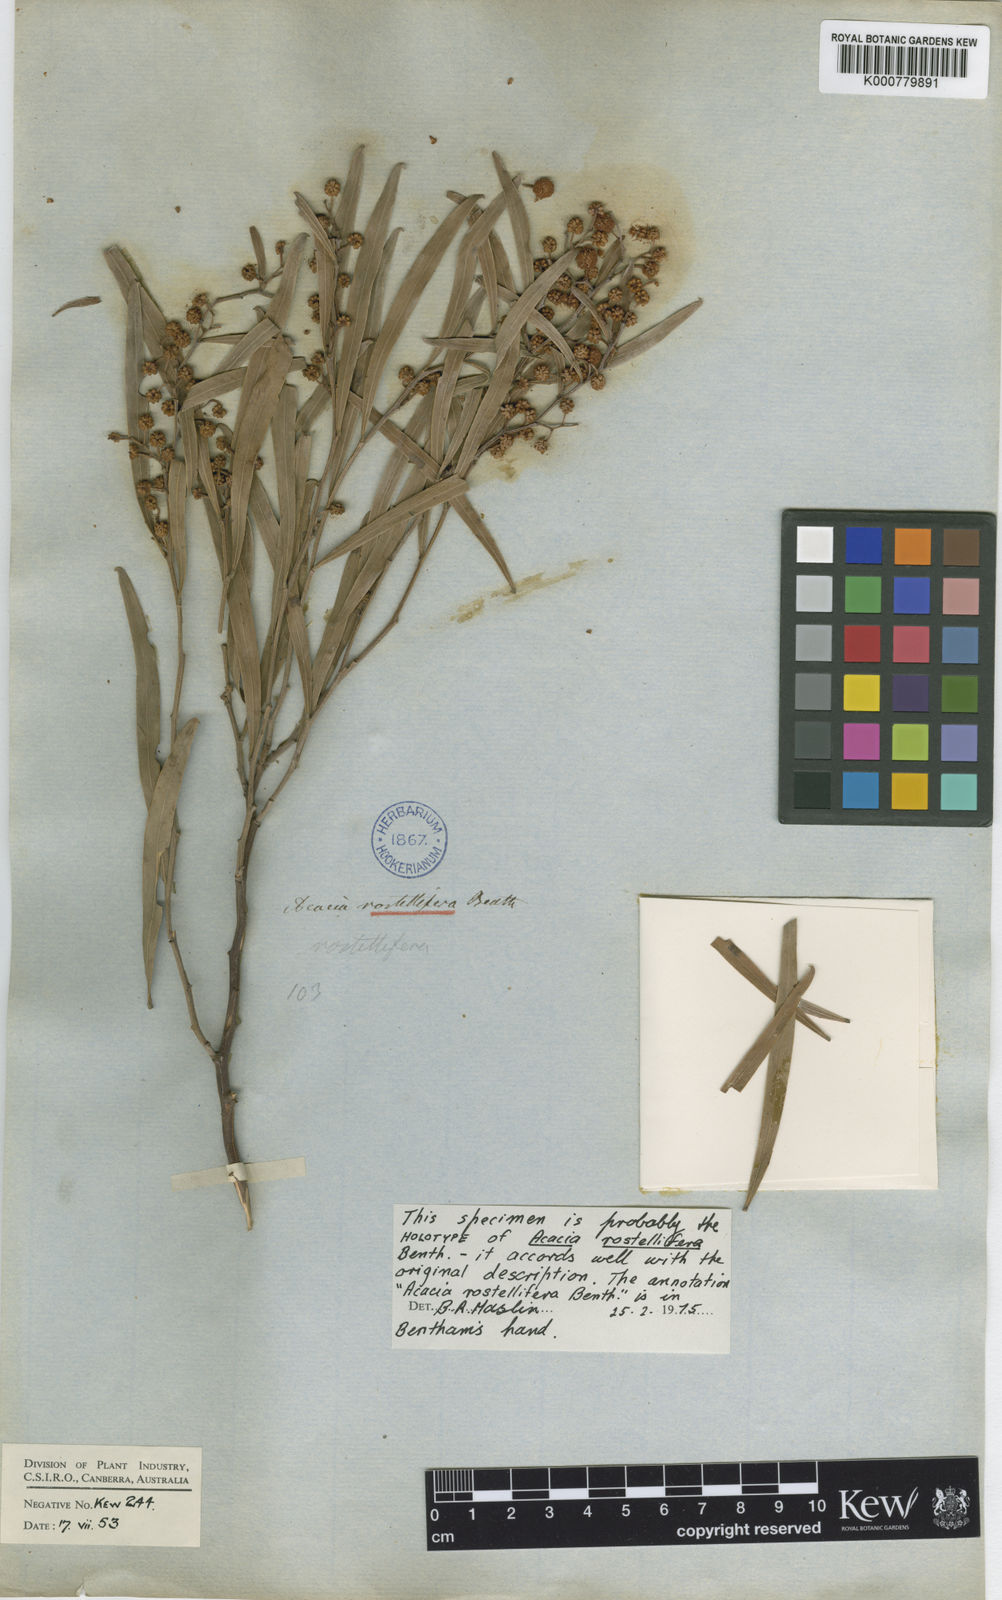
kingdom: Plantae
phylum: Tracheophyta
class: Magnoliopsida
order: Fabales
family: Fabaceae
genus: Acacia
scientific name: Acacia rostellifera
